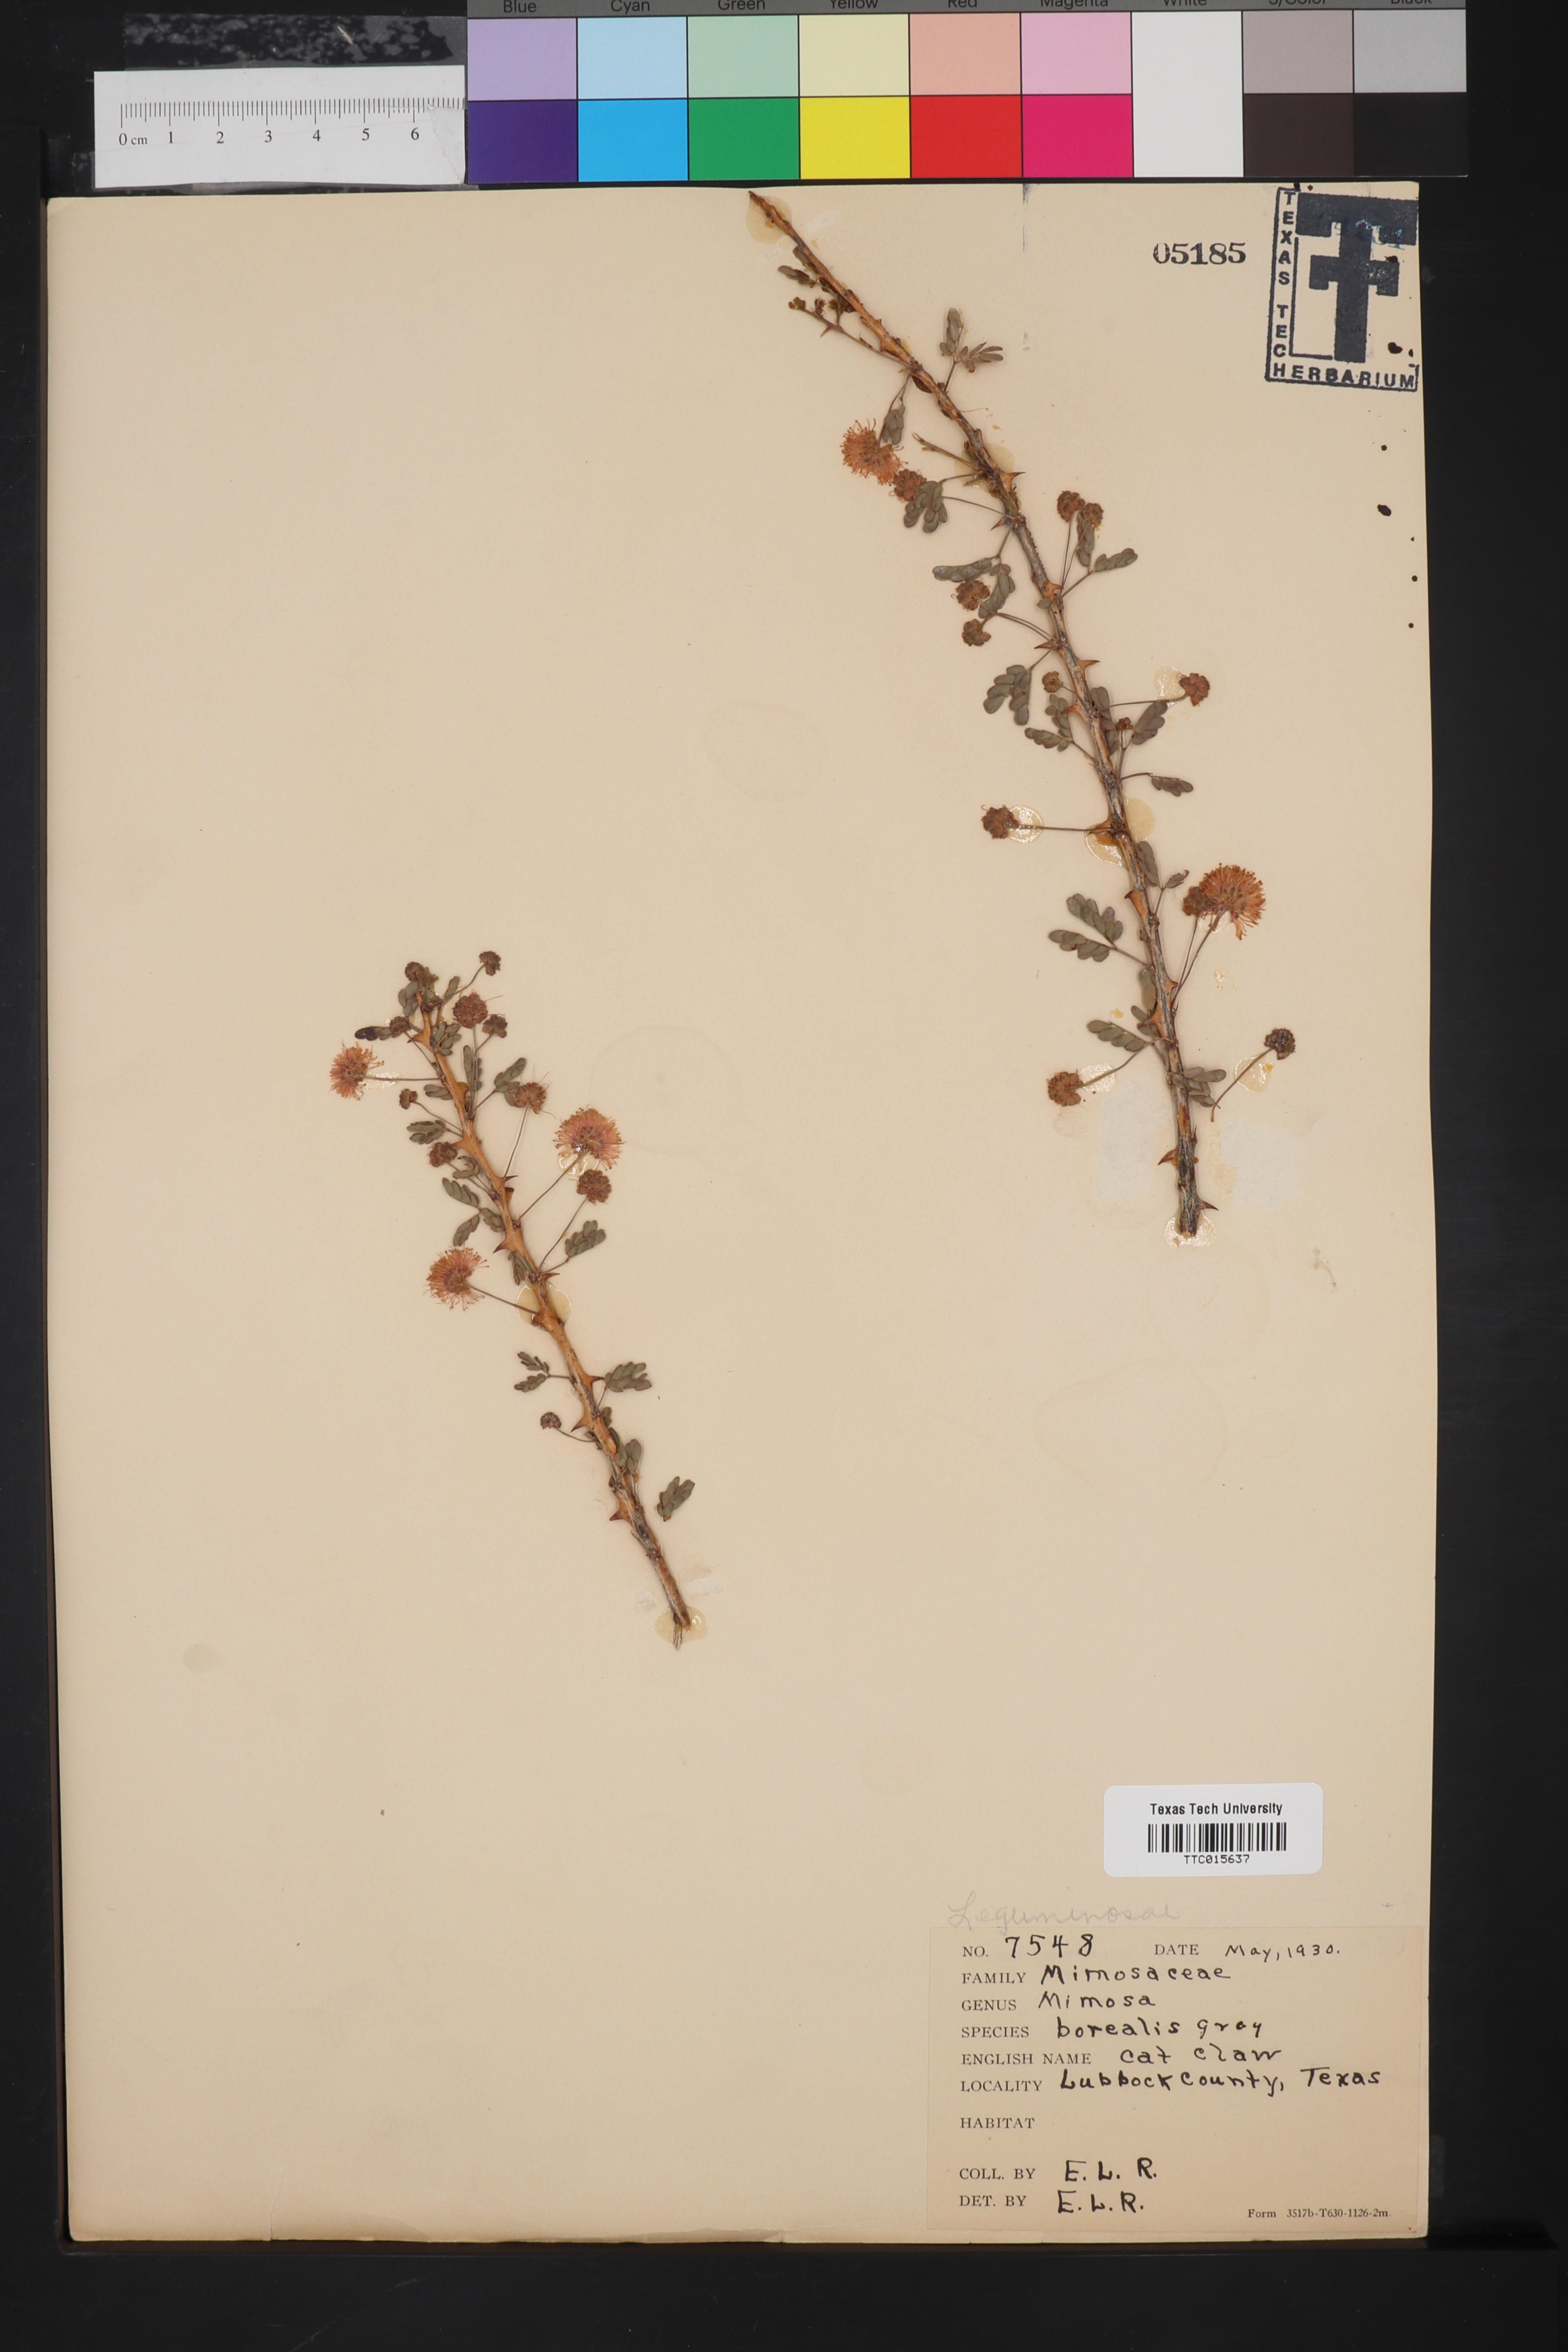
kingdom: Plantae
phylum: Tracheophyta
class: Magnoliopsida
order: Fabales
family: Fabaceae
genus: Mimosa
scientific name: Mimosa borealis
